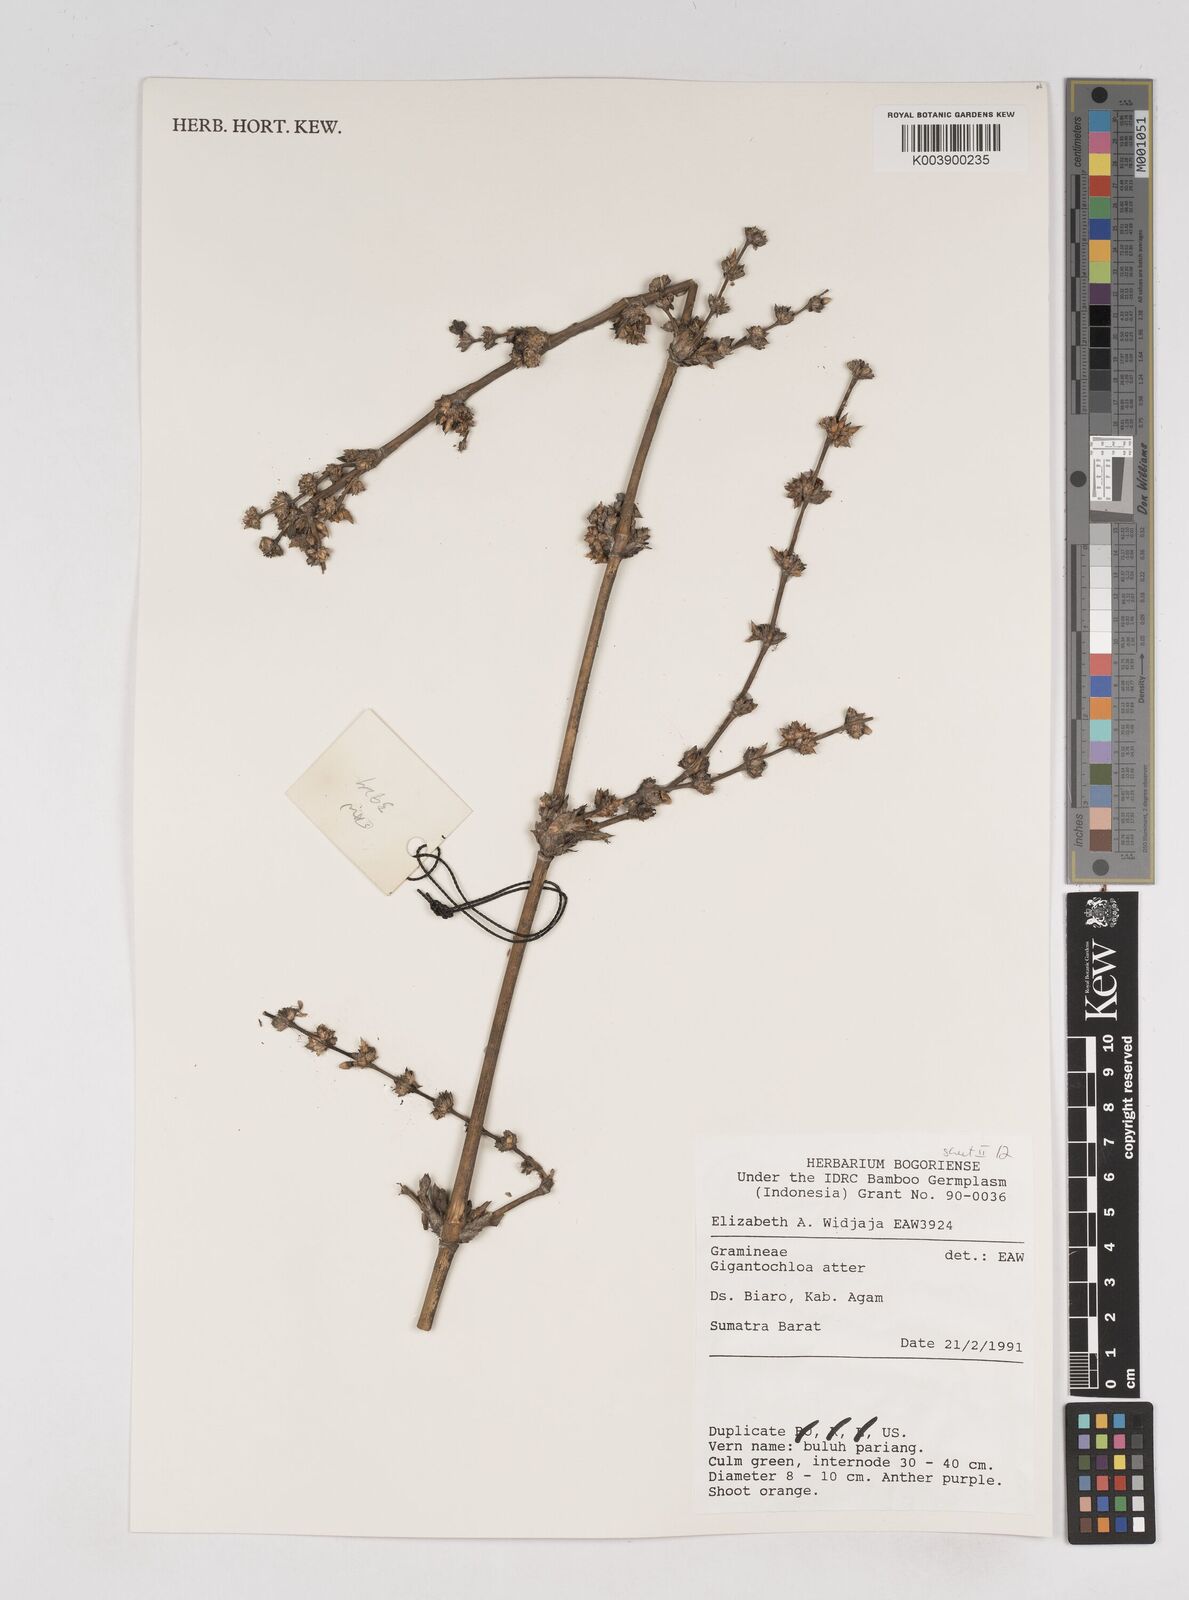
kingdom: Plantae
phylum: Tracheophyta
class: Liliopsida
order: Poales
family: Poaceae
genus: Gigantochloa
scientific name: Gigantochloa atter
